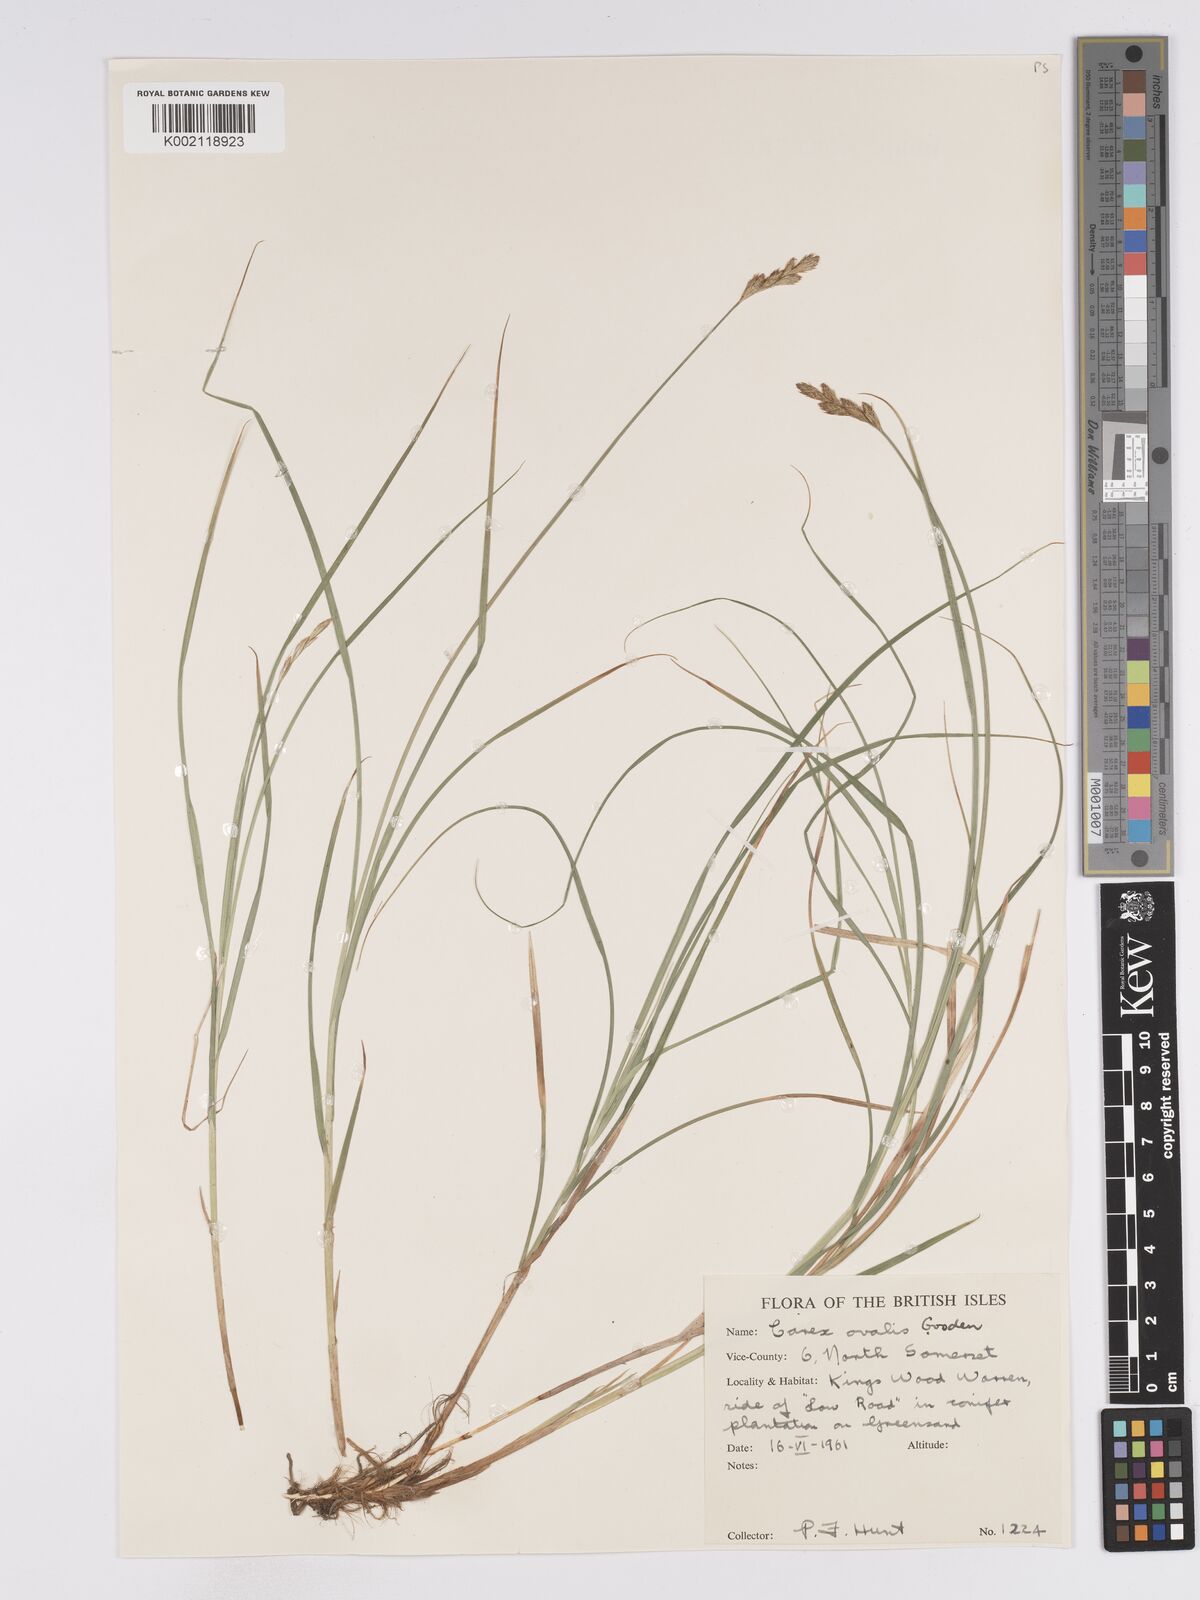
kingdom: Plantae
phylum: Tracheophyta
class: Liliopsida
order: Poales
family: Cyperaceae
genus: Carex
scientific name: Carex leporina
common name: Oval sedge
